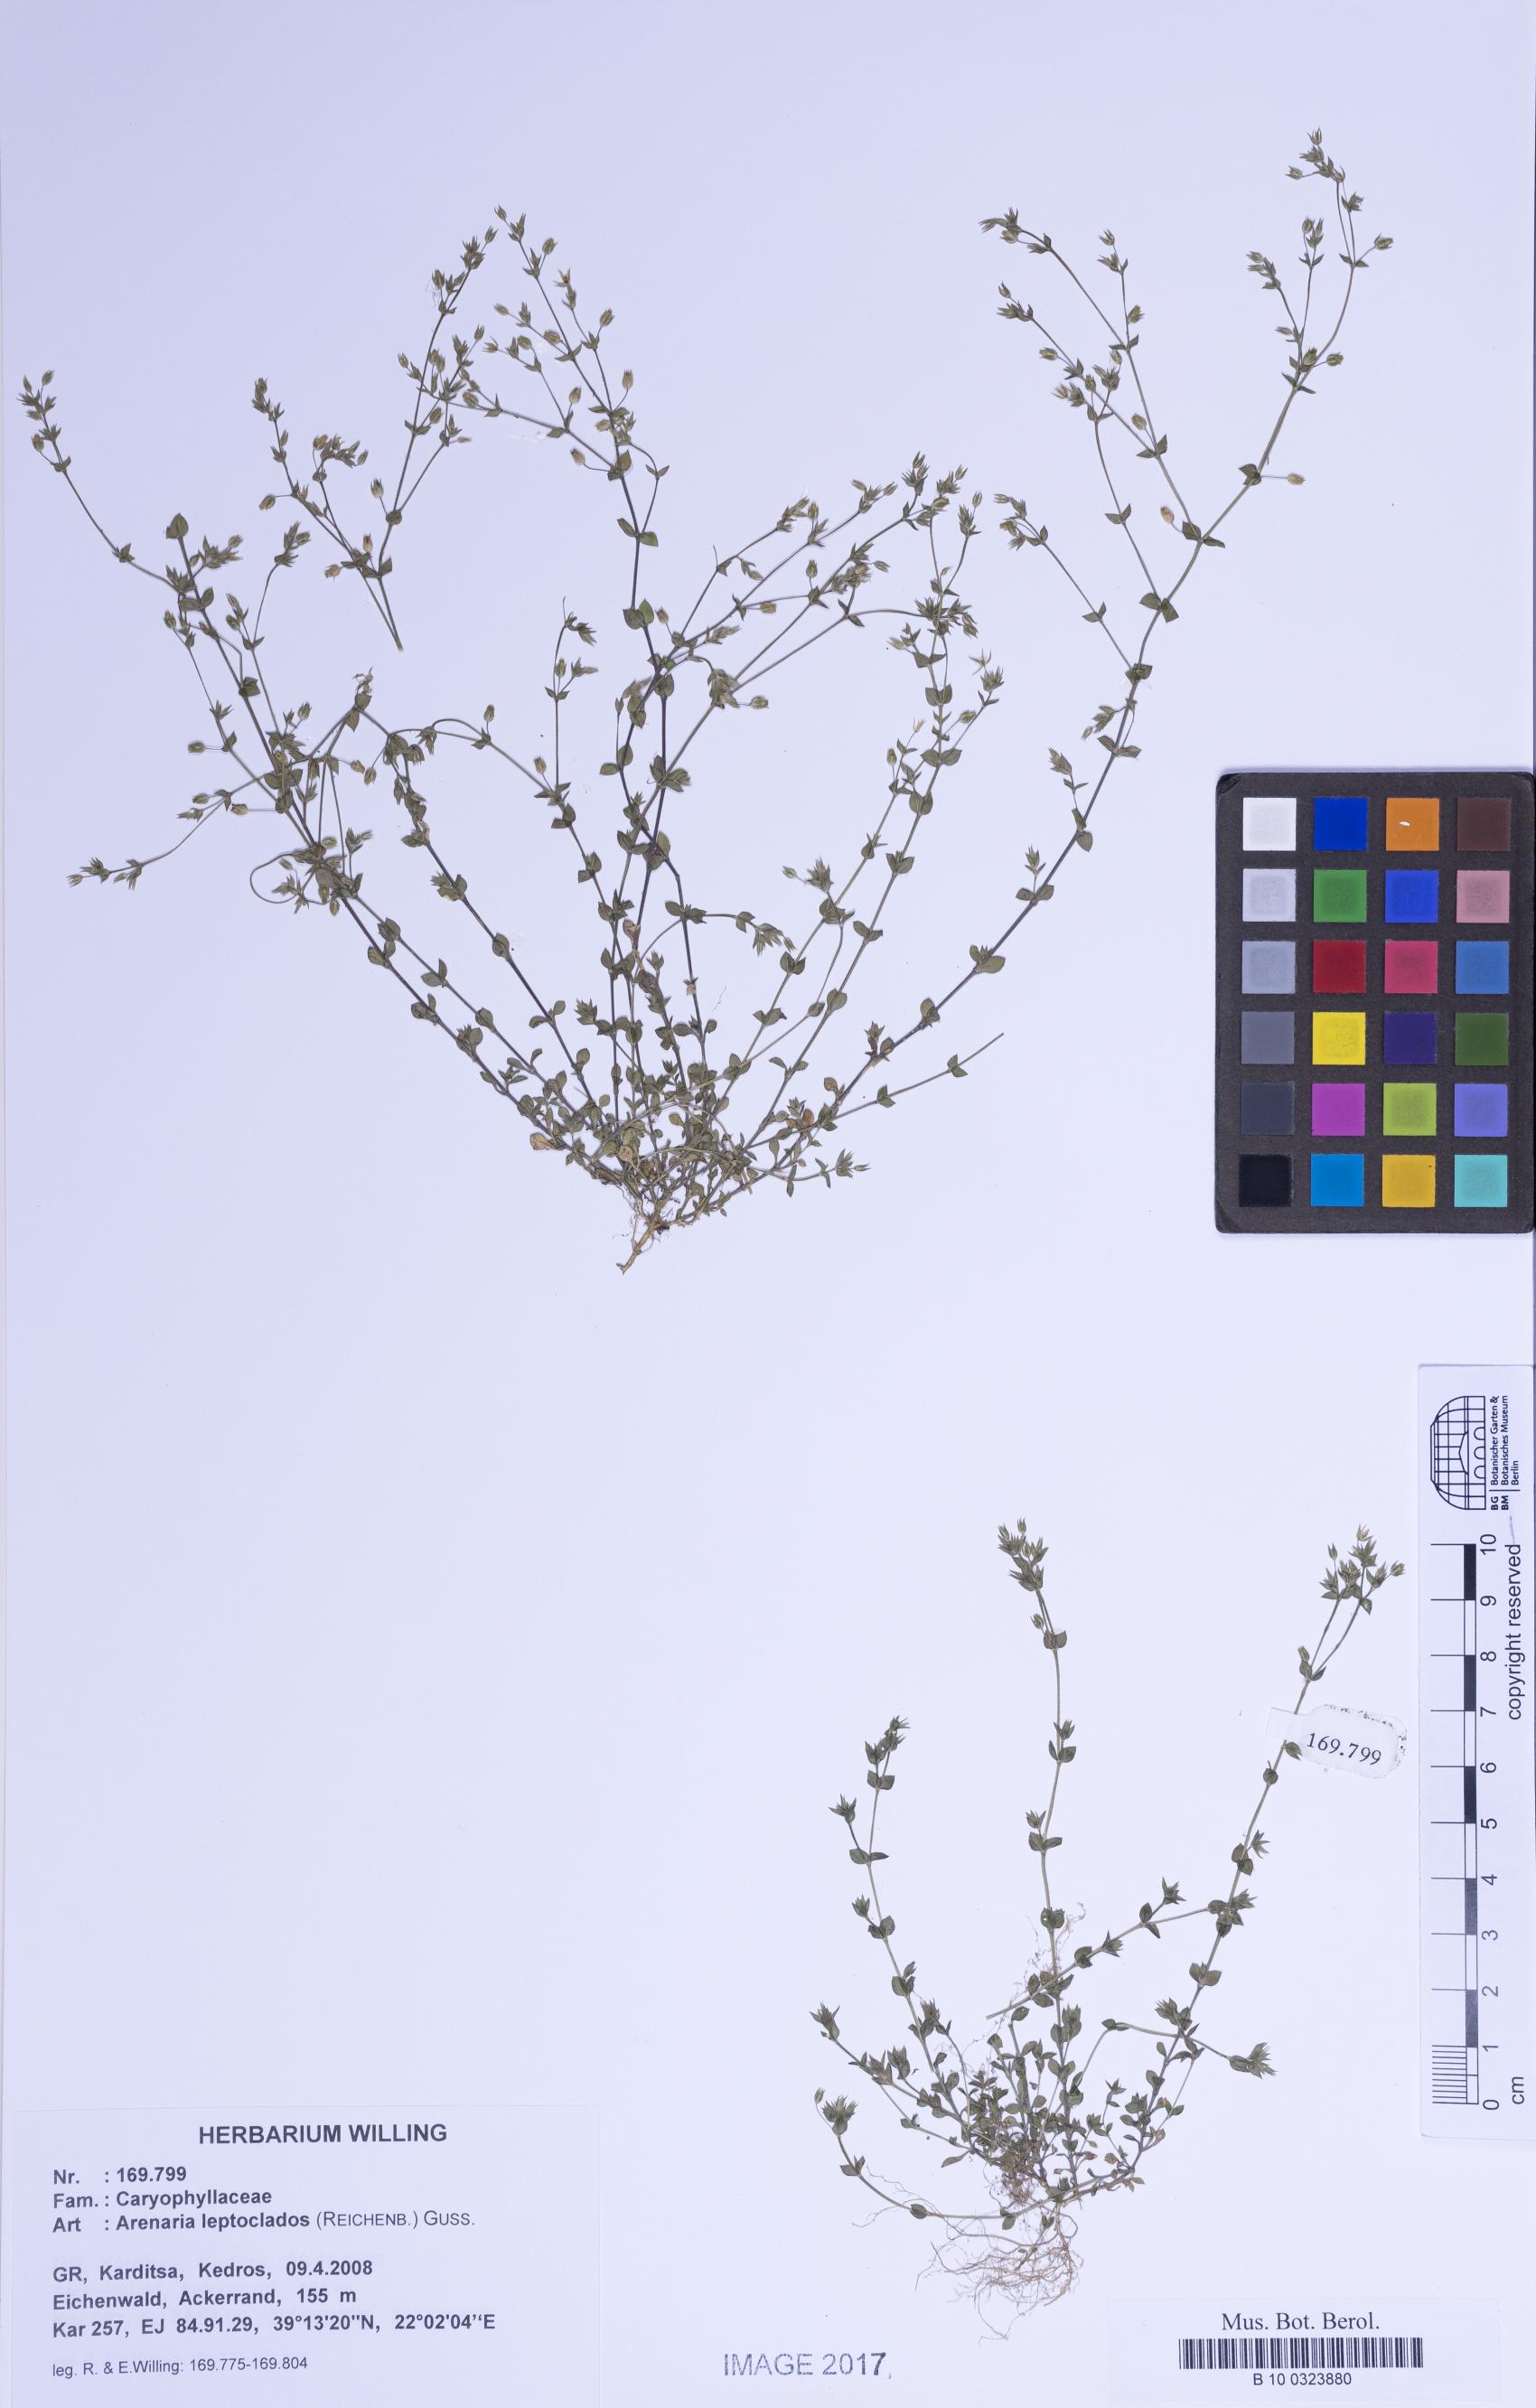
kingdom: Plantae
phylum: Tracheophyta
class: Magnoliopsida
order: Caryophyllales
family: Caryophyllaceae
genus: Arenaria
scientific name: Arenaria leptoclados
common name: Thyme-leaved sandwort
